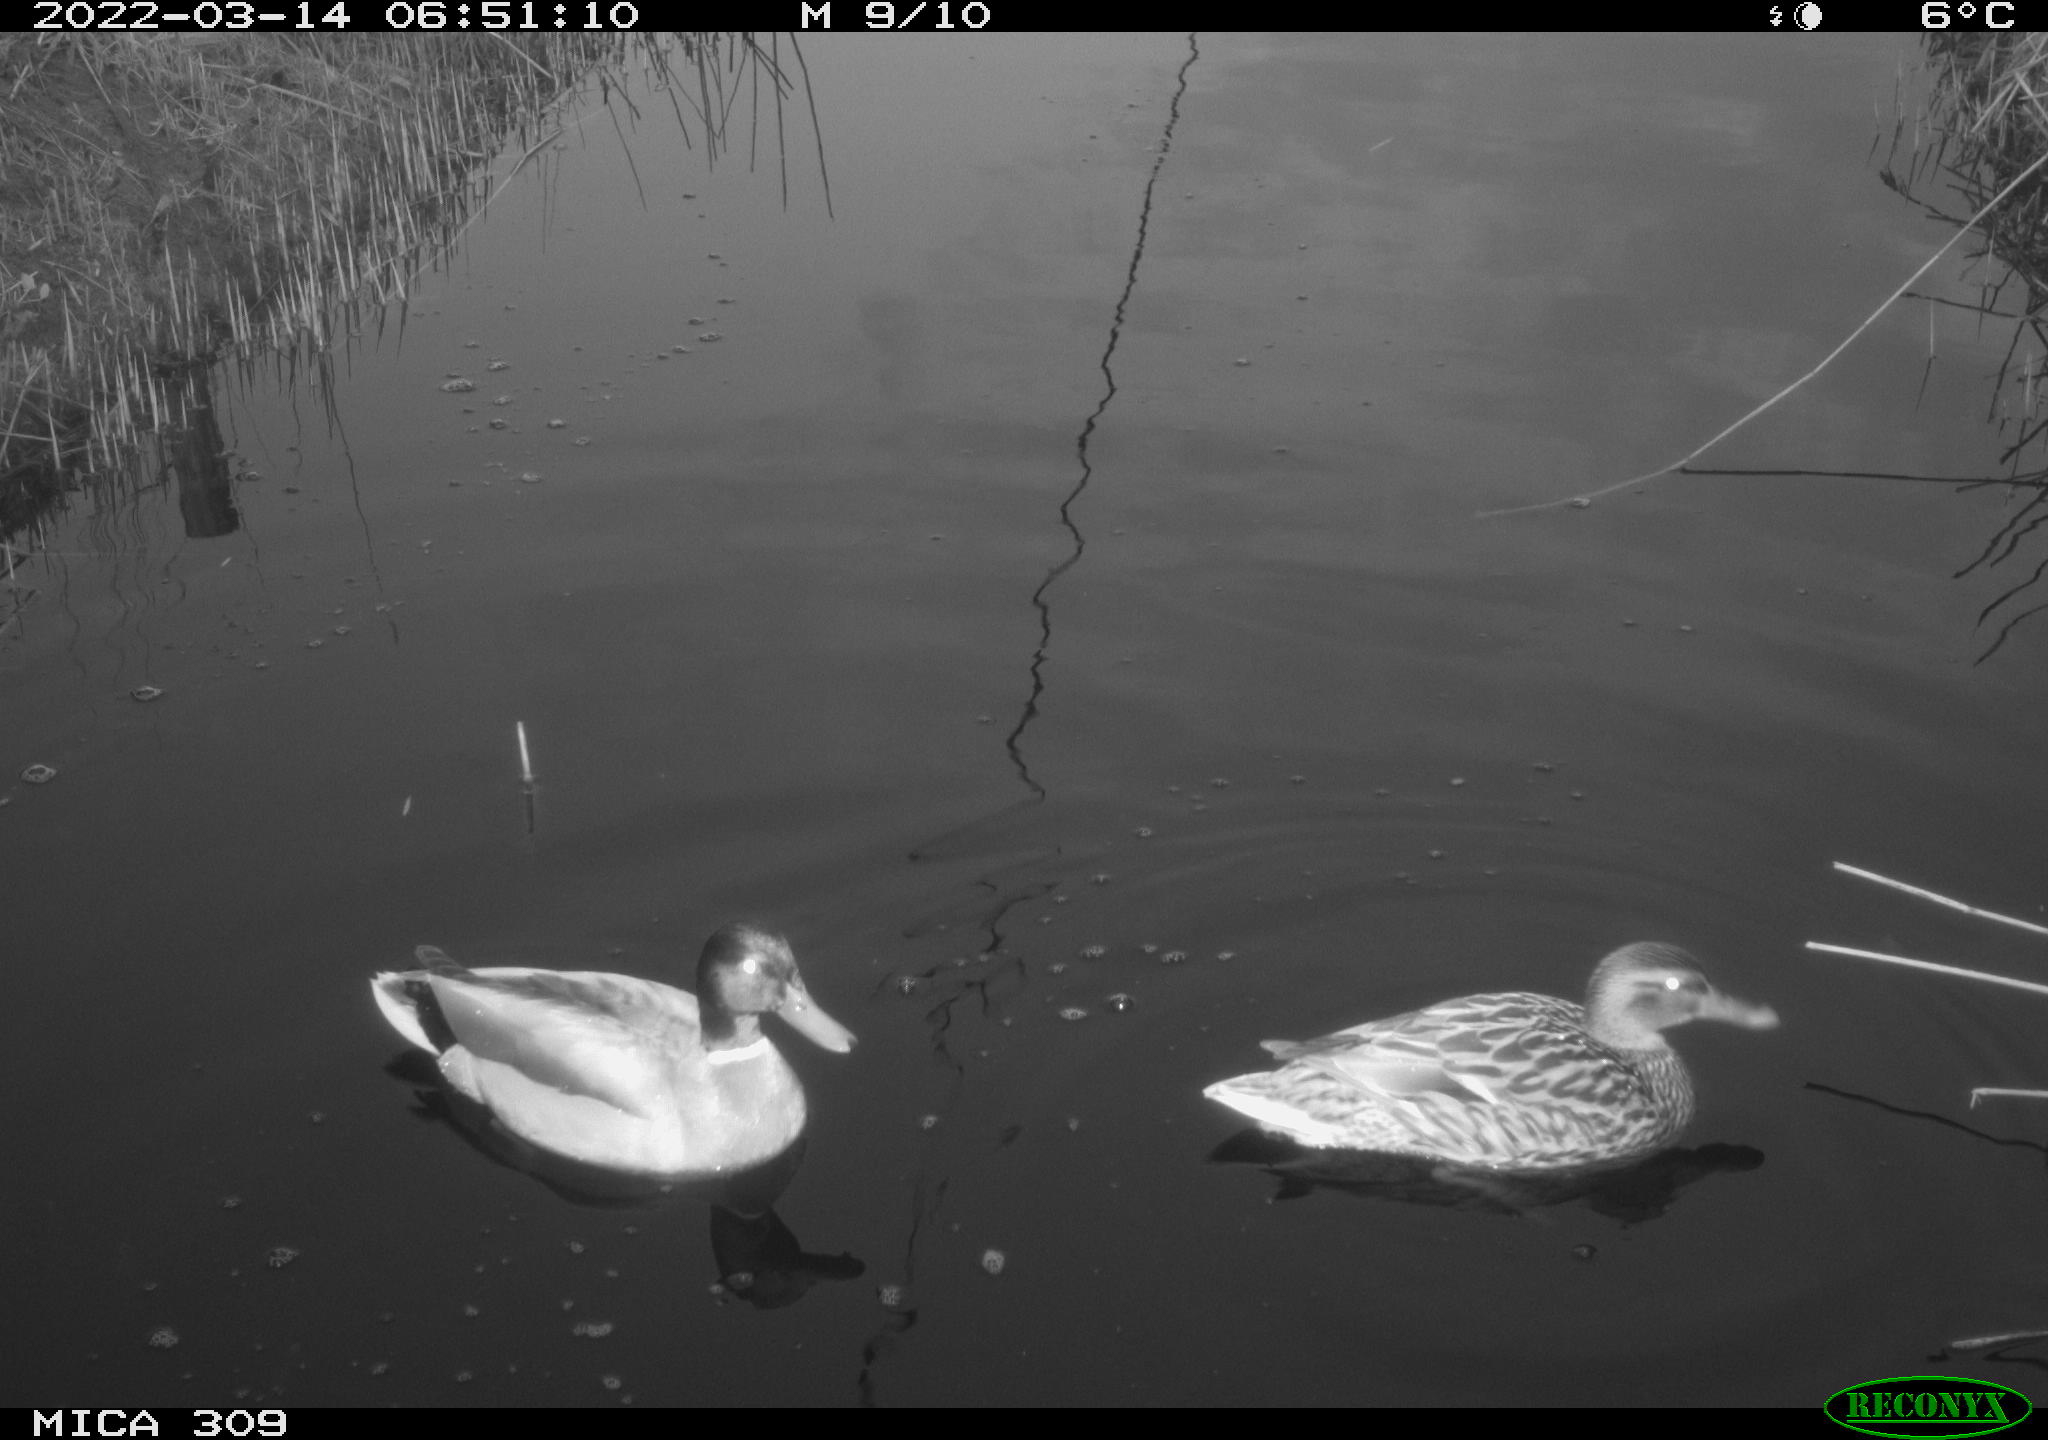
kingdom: Animalia
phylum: Chordata
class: Aves
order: Anseriformes
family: Anatidae
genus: Anas
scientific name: Anas platyrhynchos
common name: Mallard
